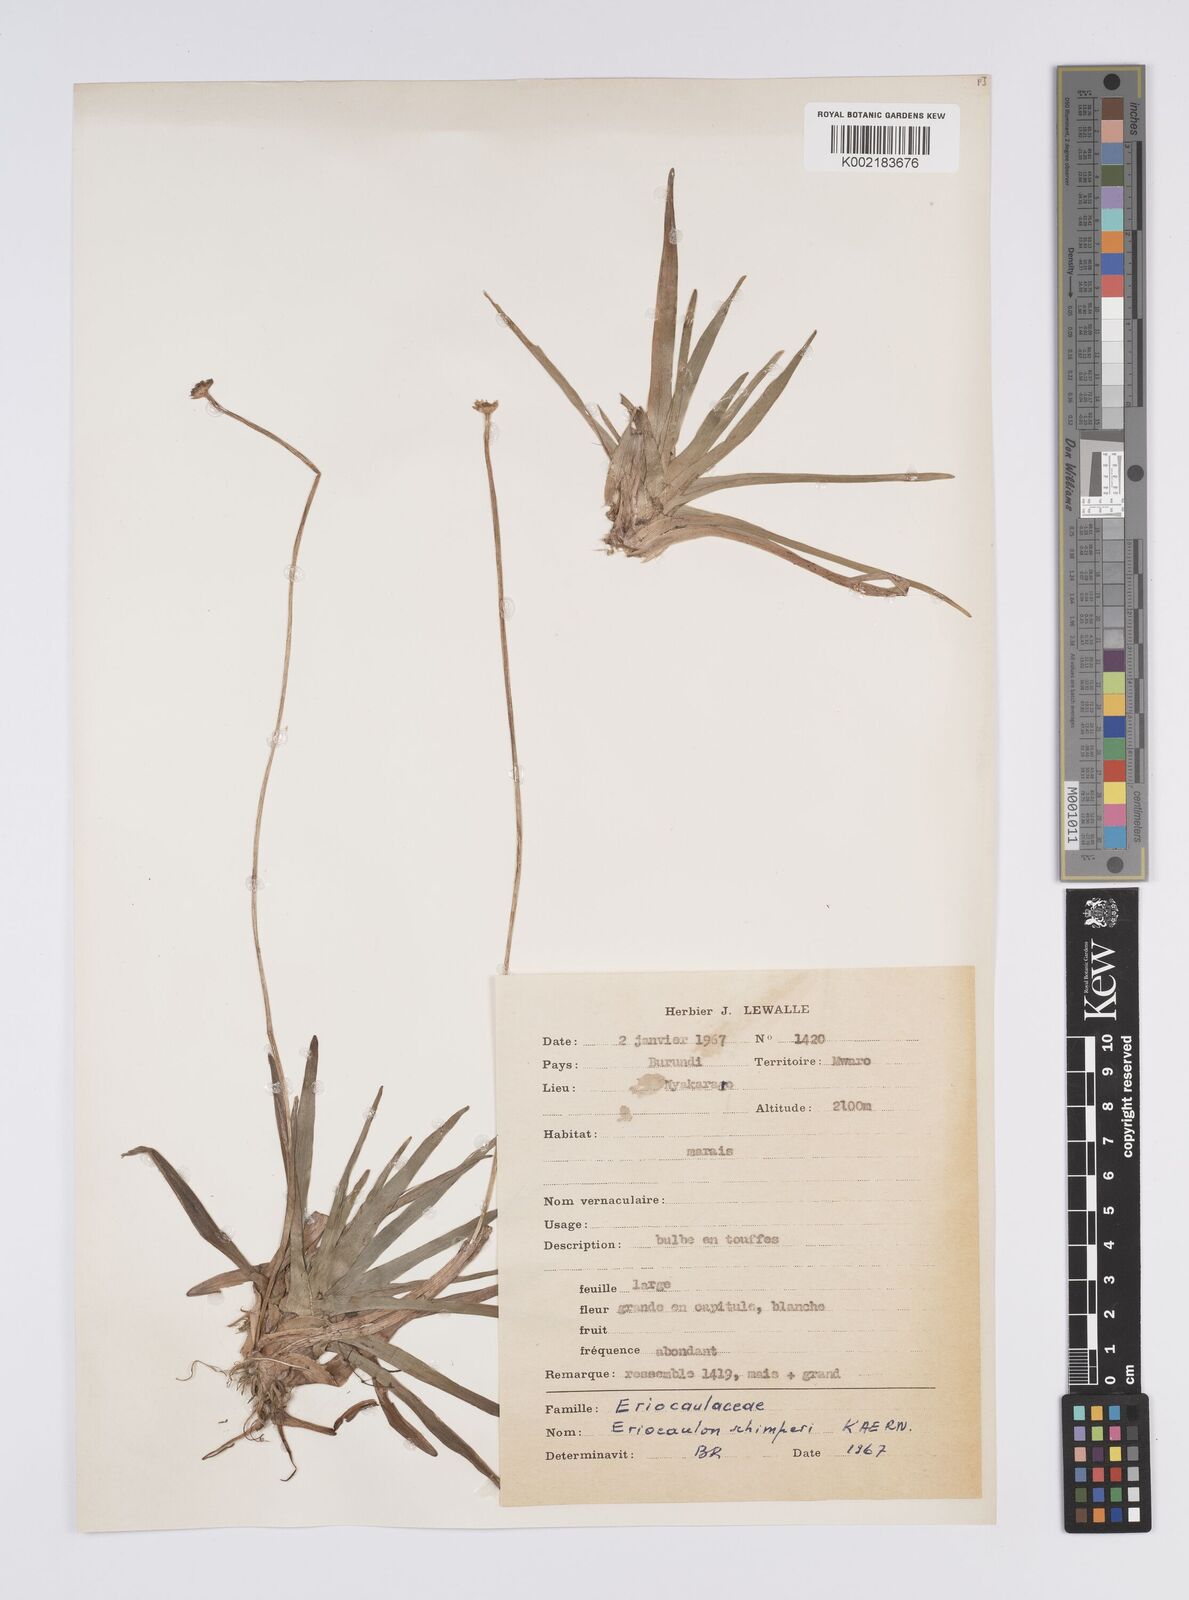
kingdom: Plantae
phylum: Tracheophyta
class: Liliopsida
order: Poales
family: Eriocaulaceae
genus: Eriocaulon
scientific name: Eriocaulon schimperi
